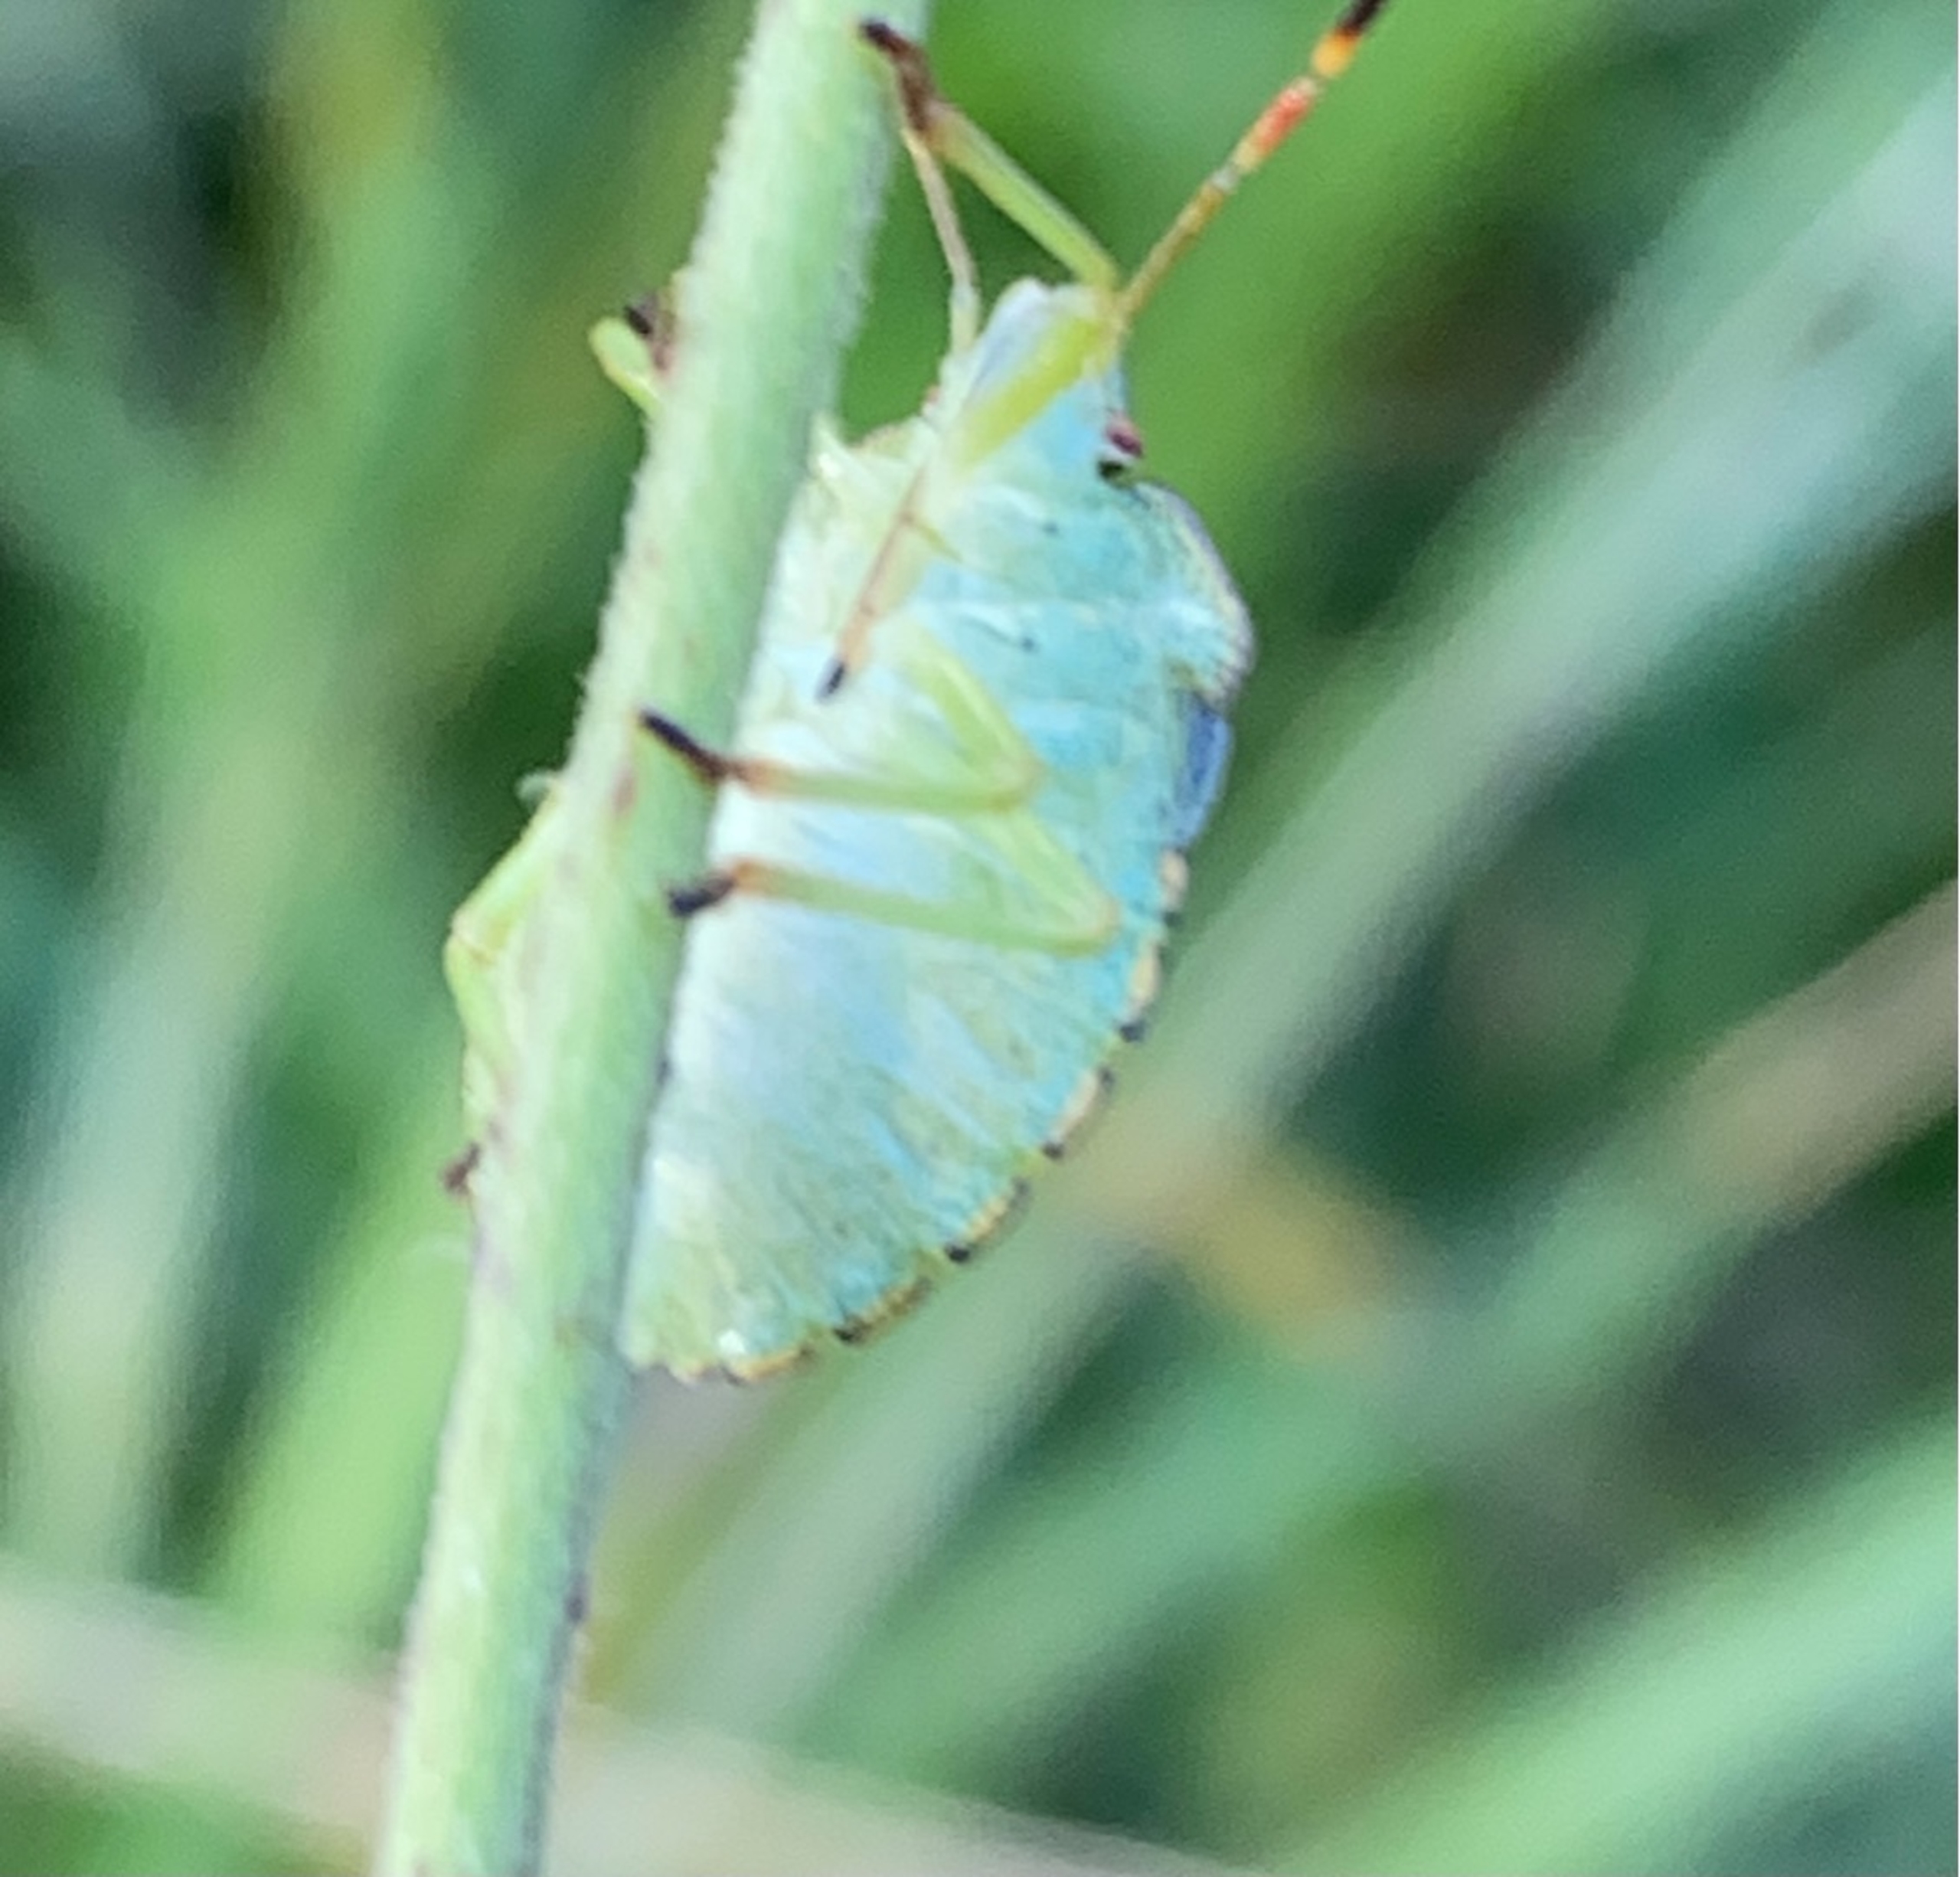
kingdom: Animalia
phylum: Arthropoda
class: Insecta
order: Hemiptera
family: Pentatomidae
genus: Palomena
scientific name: Palomena prasina
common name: Grøn bredtæge
